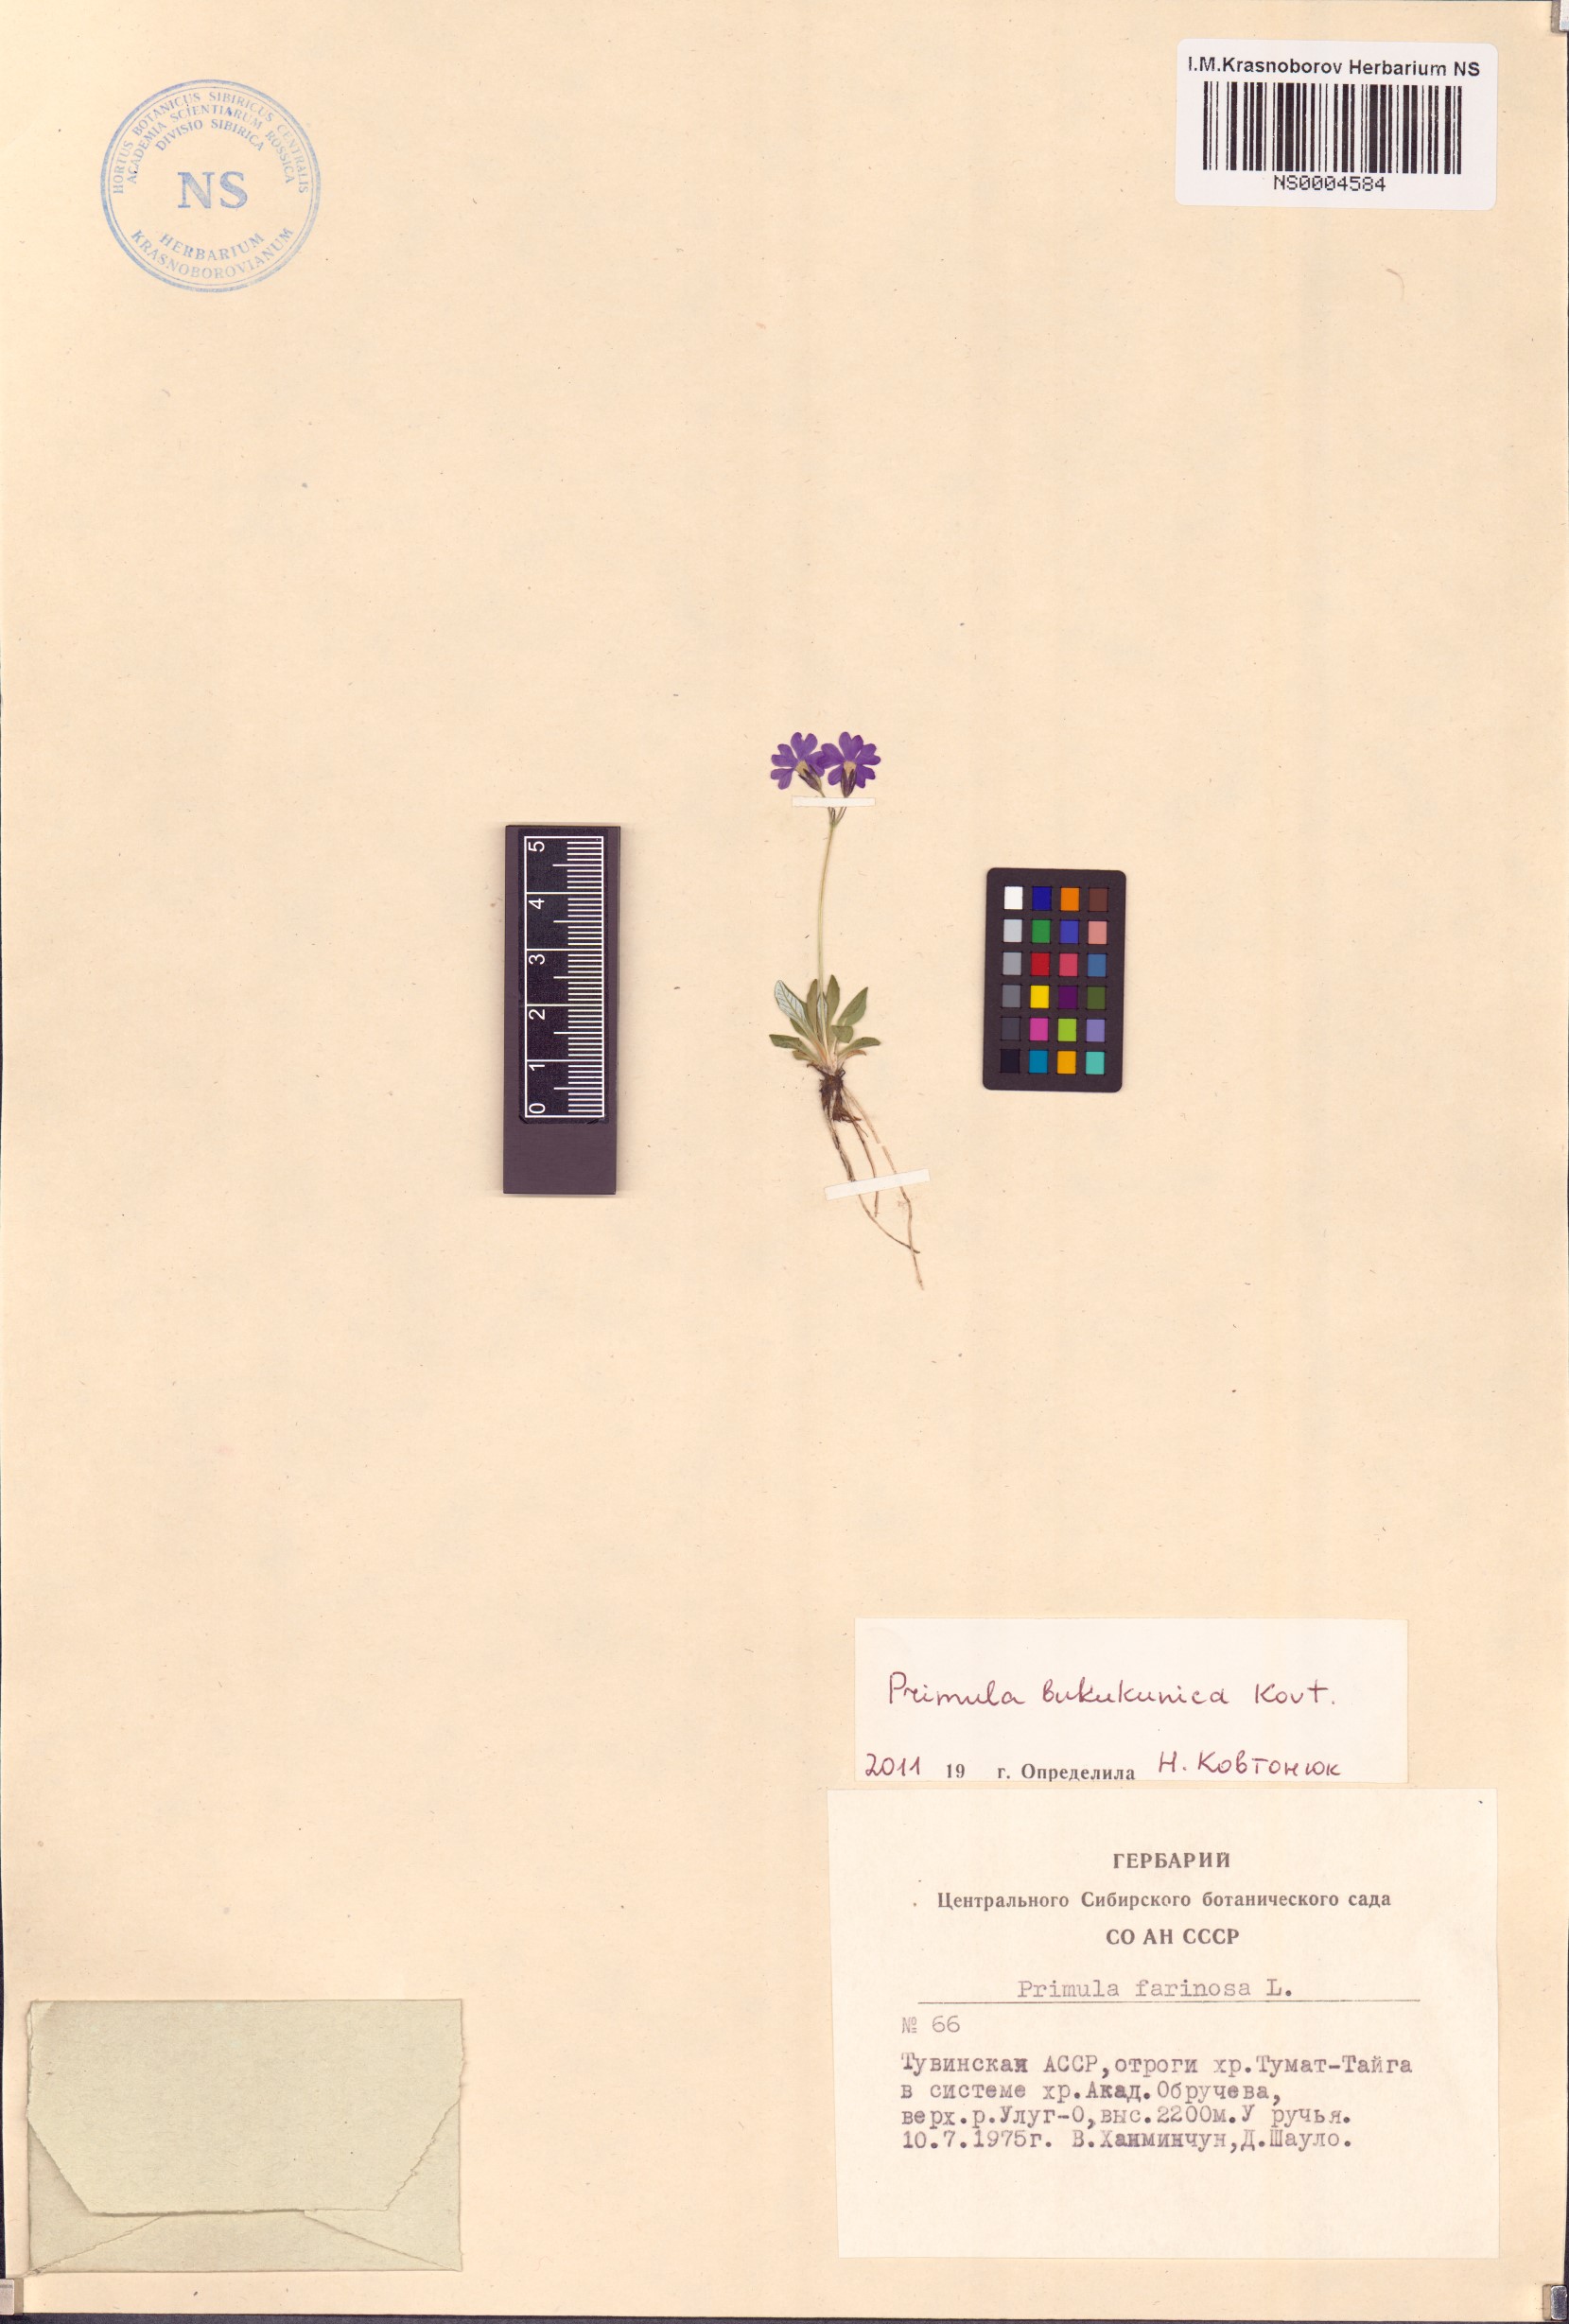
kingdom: Plantae
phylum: Tracheophyta
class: Magnoliopsida
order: Ericales
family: Primulaceae
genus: Primula
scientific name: Primula bukukunica
